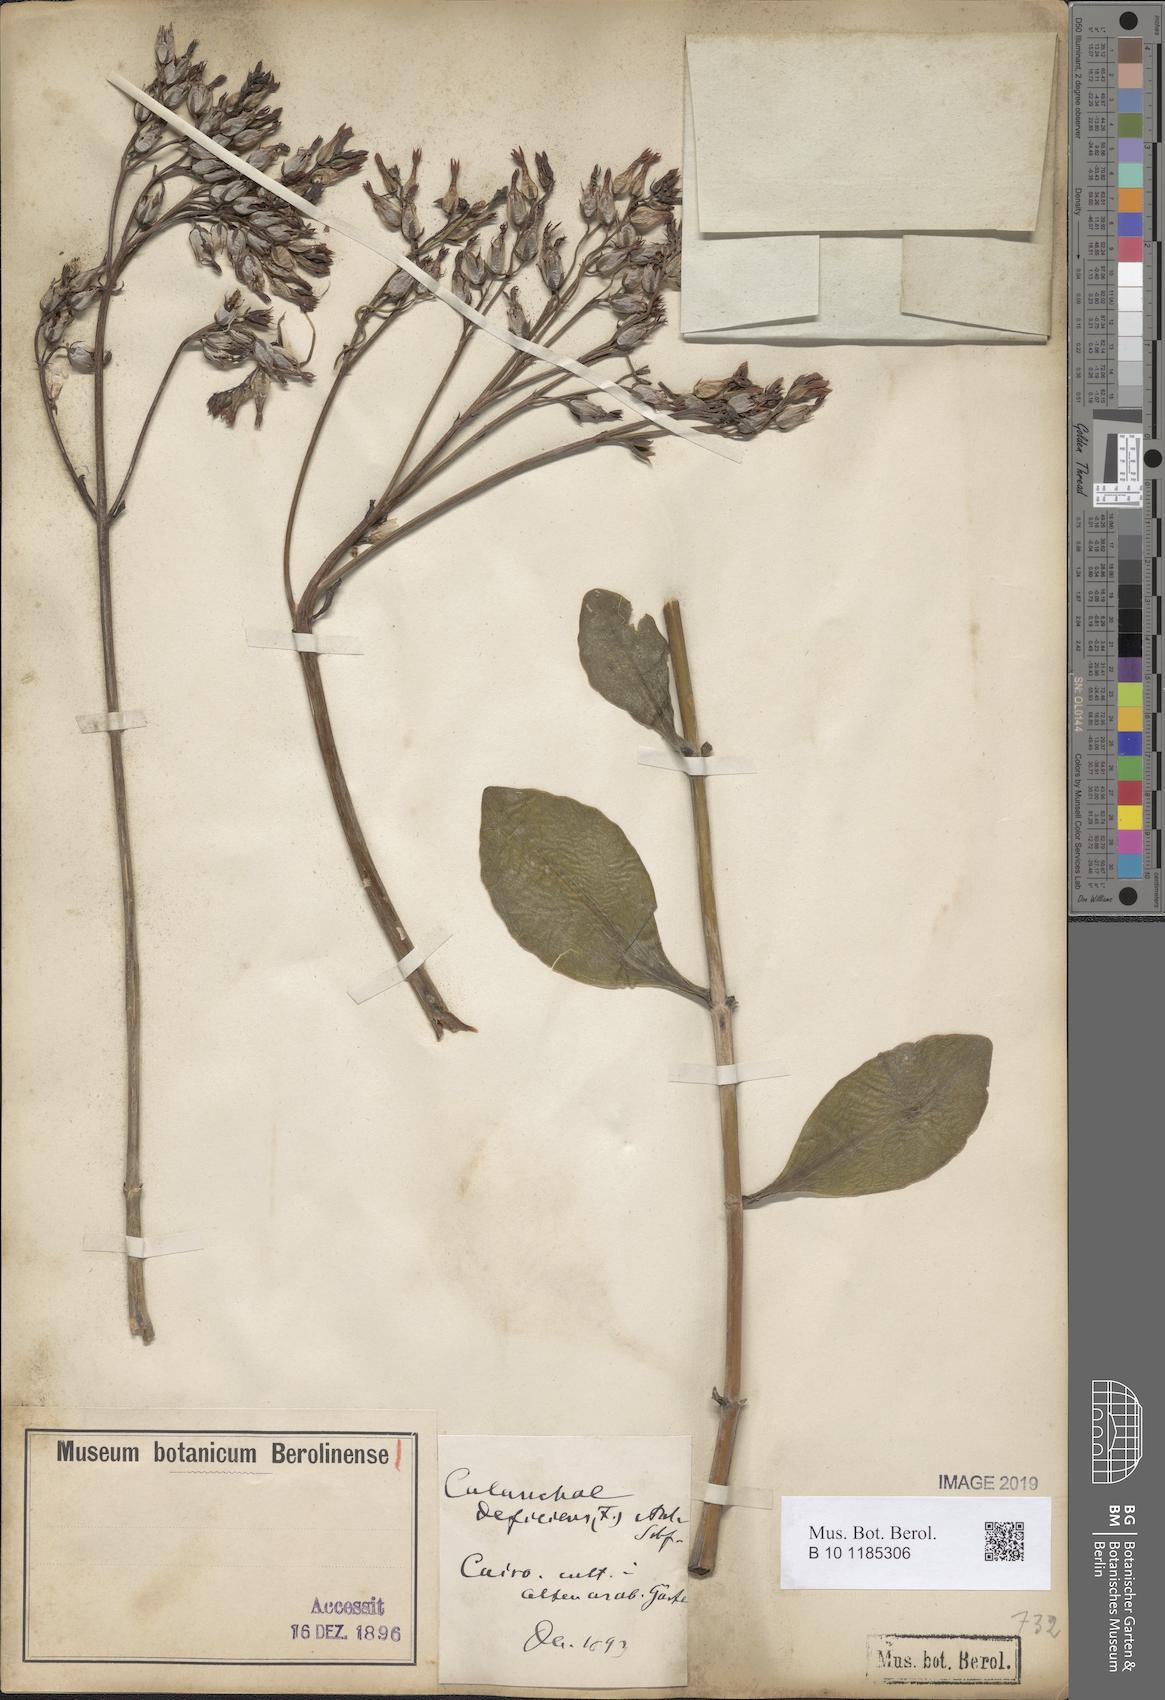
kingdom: Plantae
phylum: Tracheophyta
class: Magnoliopsida
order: Saxifragales
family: Crassulaceae
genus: Kalanchoe
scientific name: Kalanchoe deficiens
